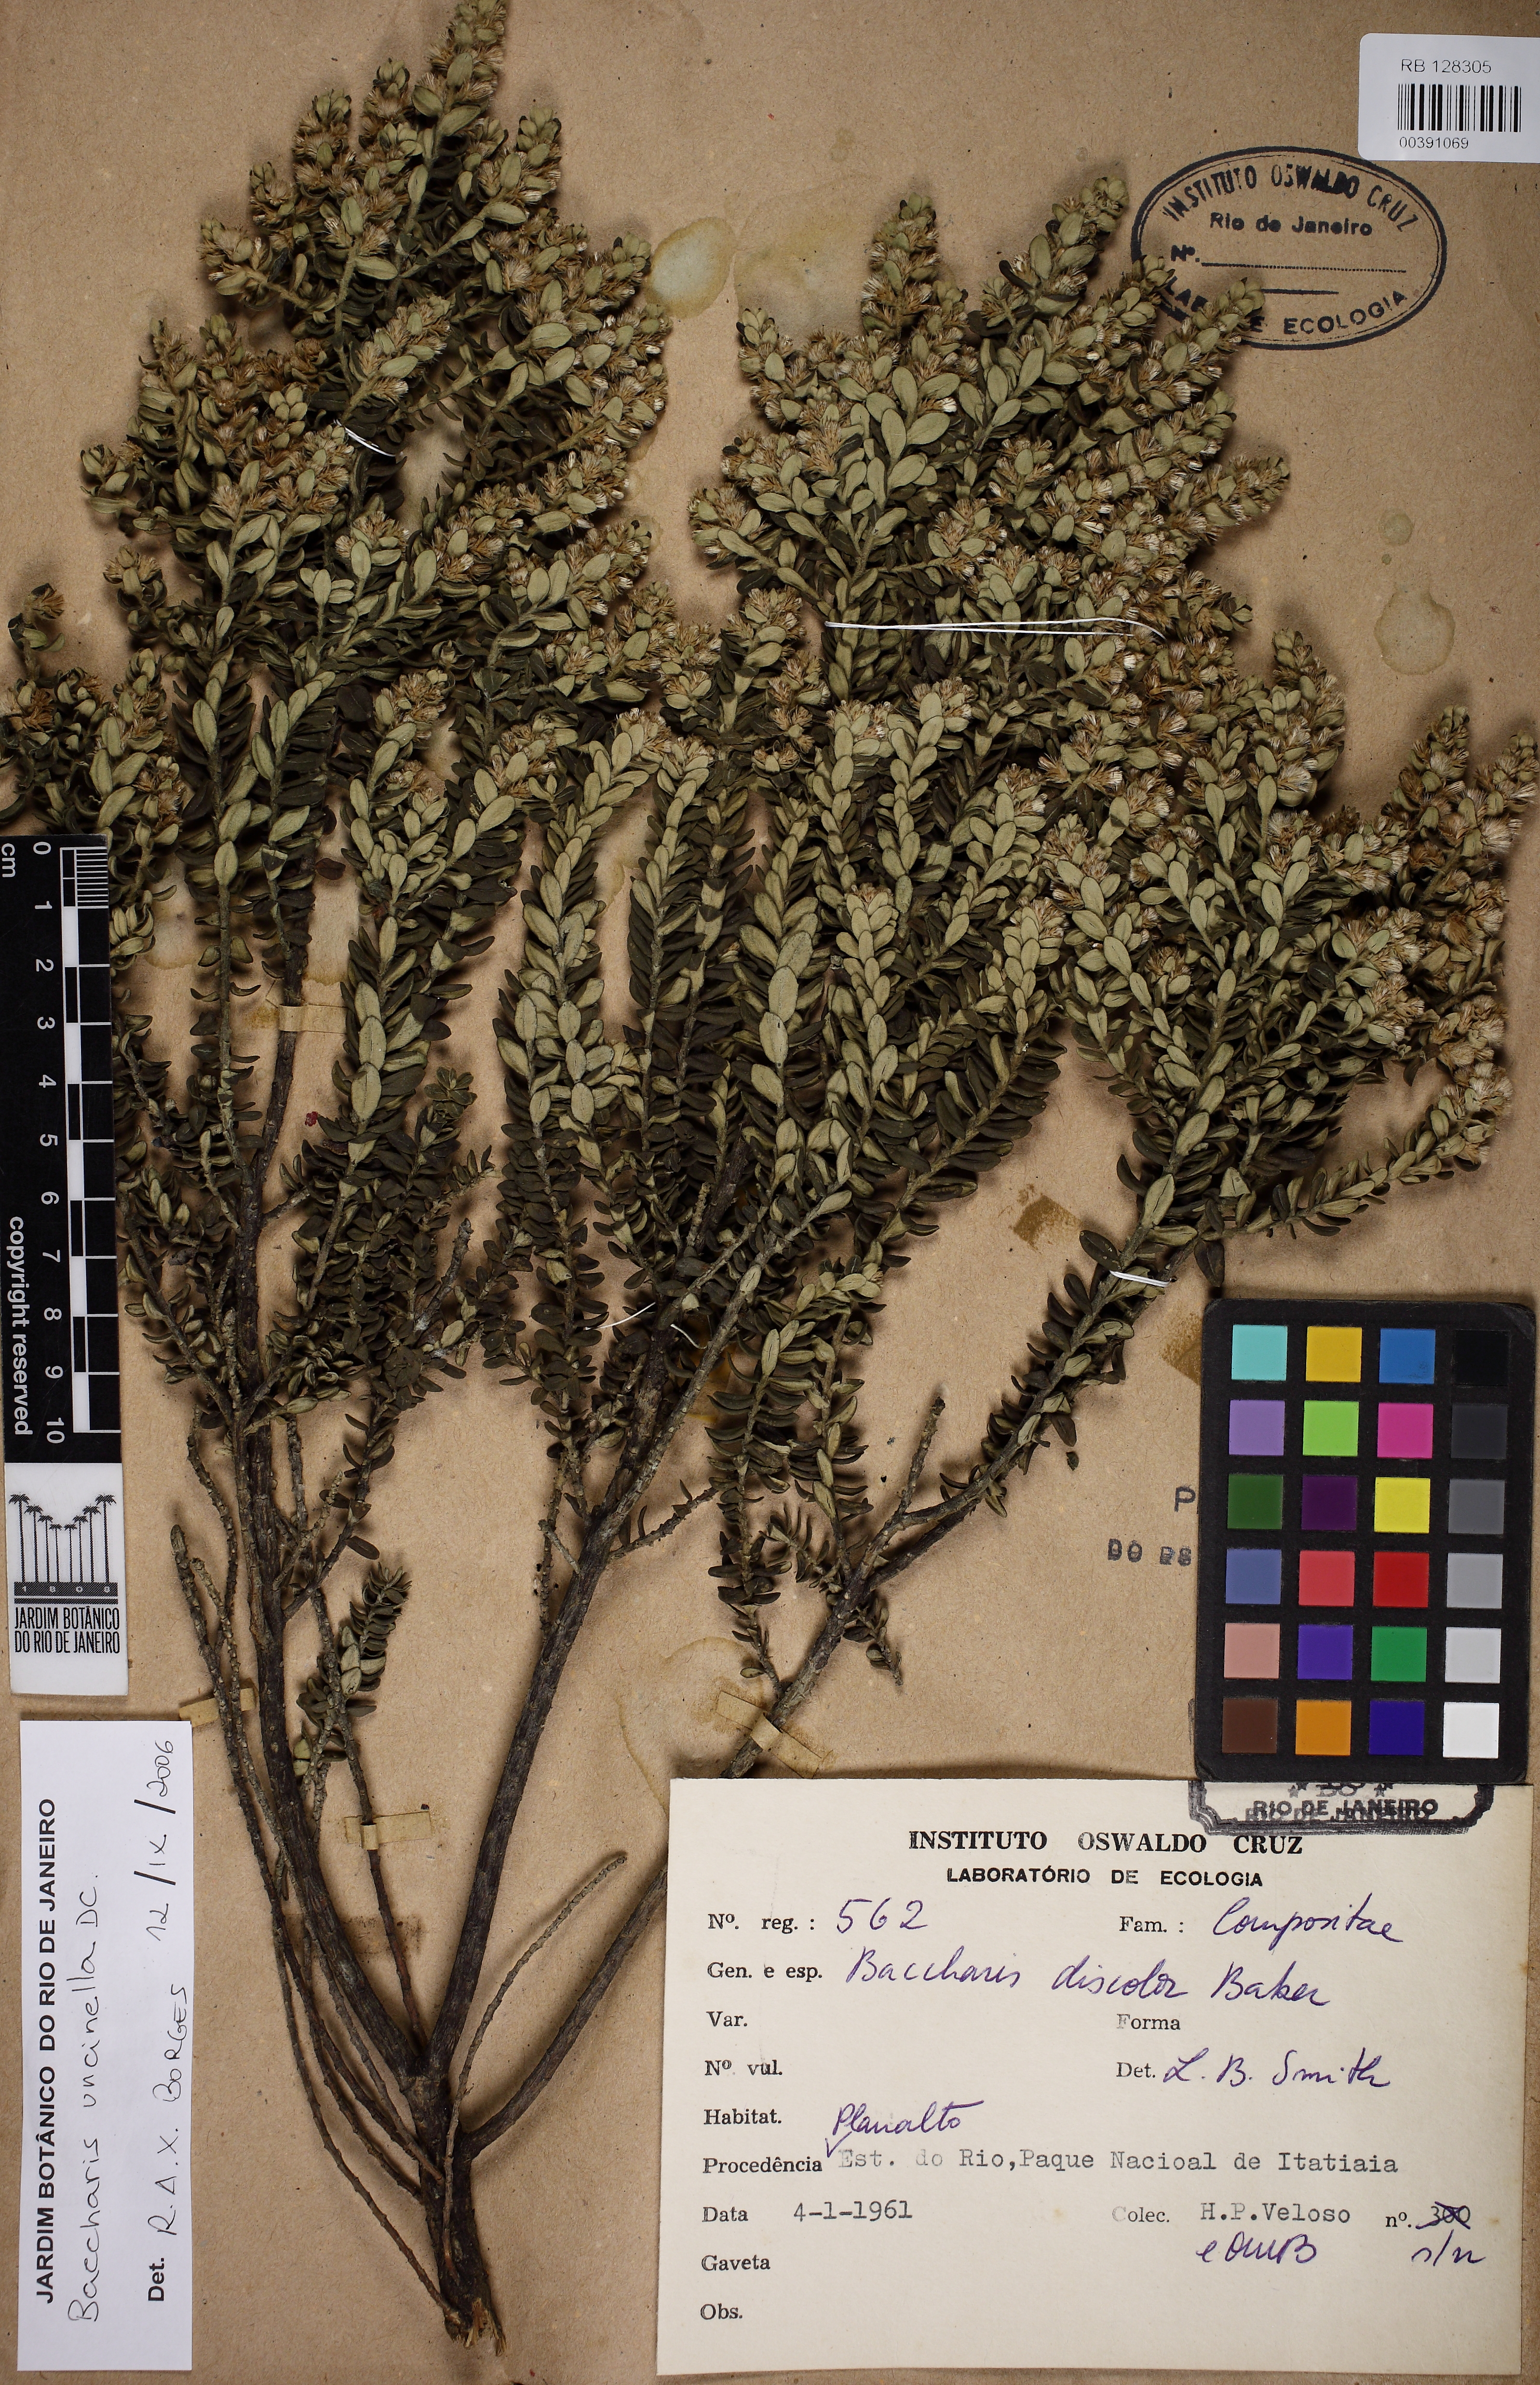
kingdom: Plantae
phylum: Tracheophyta
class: Magnoliopsida
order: Asterales
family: Asteraceae
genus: Baccharis
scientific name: Baccharis uncinella
